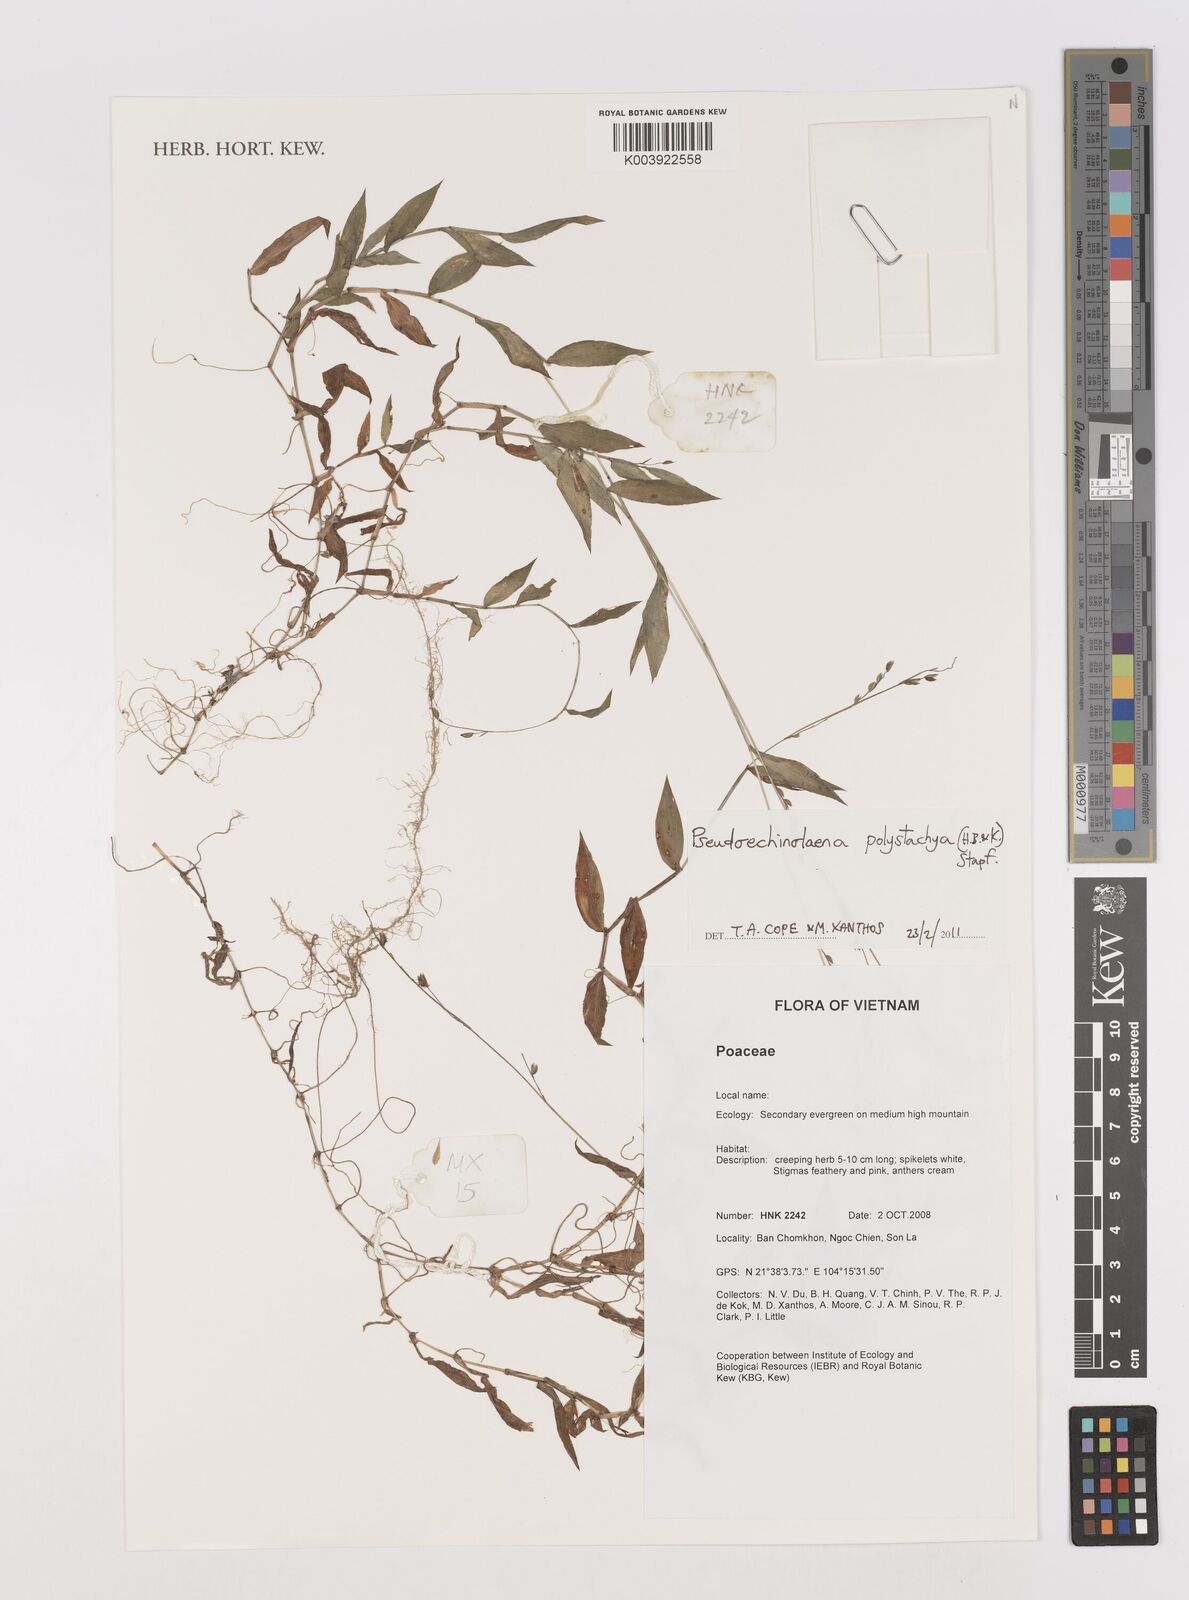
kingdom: Plantae
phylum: Tracheophyta
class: Liliopsida
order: Poales
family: Poaceae
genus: Pseudechinolaena
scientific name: Pseudechinolaena polystachya
